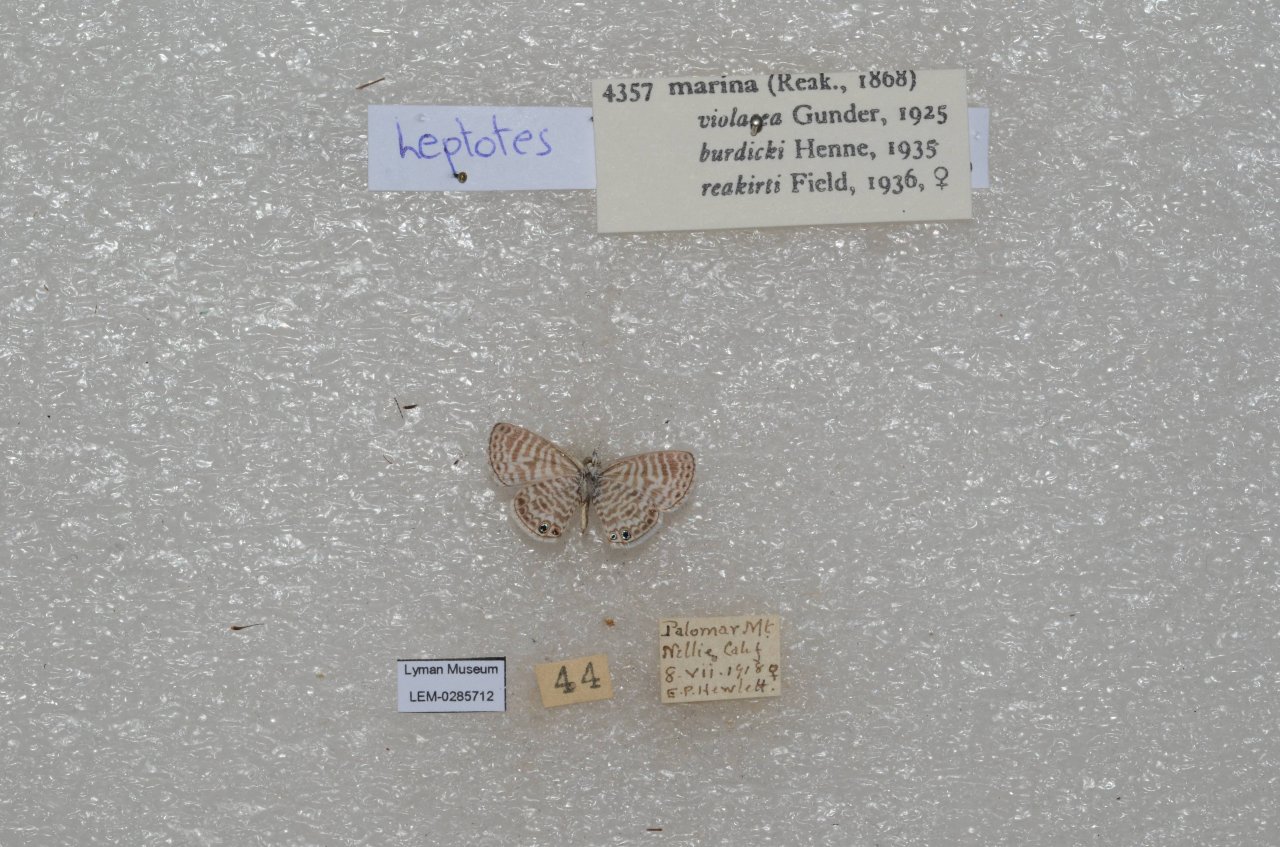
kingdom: Animalia
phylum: Arthropoda
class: Insecta
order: Lepidoptera
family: Lycaenidae
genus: Leptotes
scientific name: Leptotes marina
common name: Marine Blue
